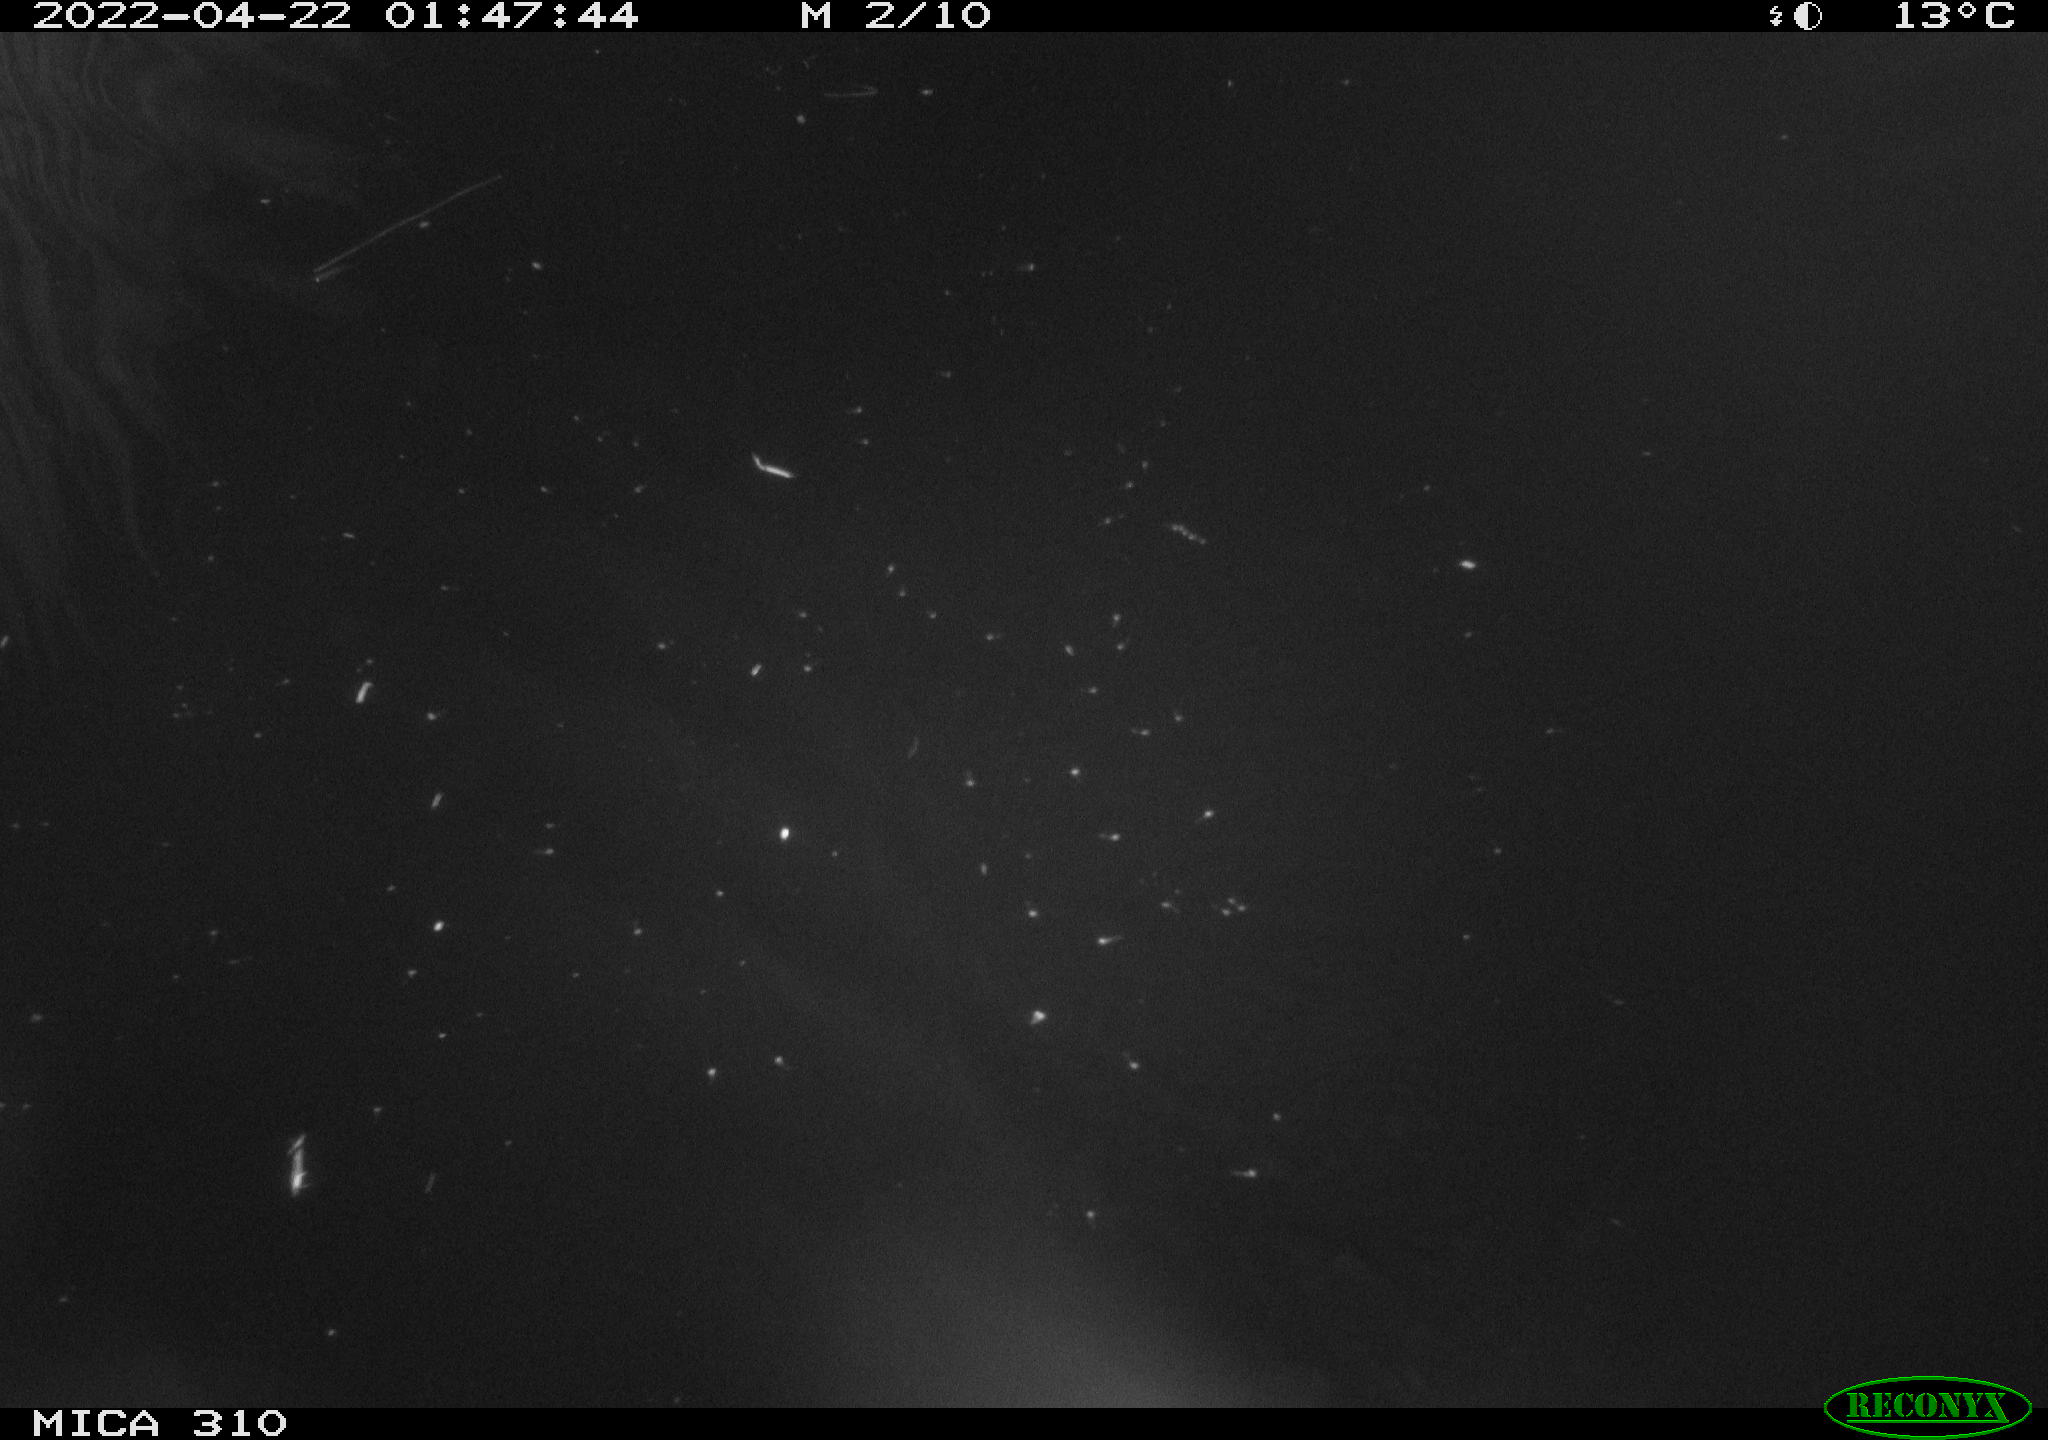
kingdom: Animalia
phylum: Chordata
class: Aves
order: Anseriformes
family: Anatidae
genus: Anas
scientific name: Anas platyrhynchos
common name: Mallard
